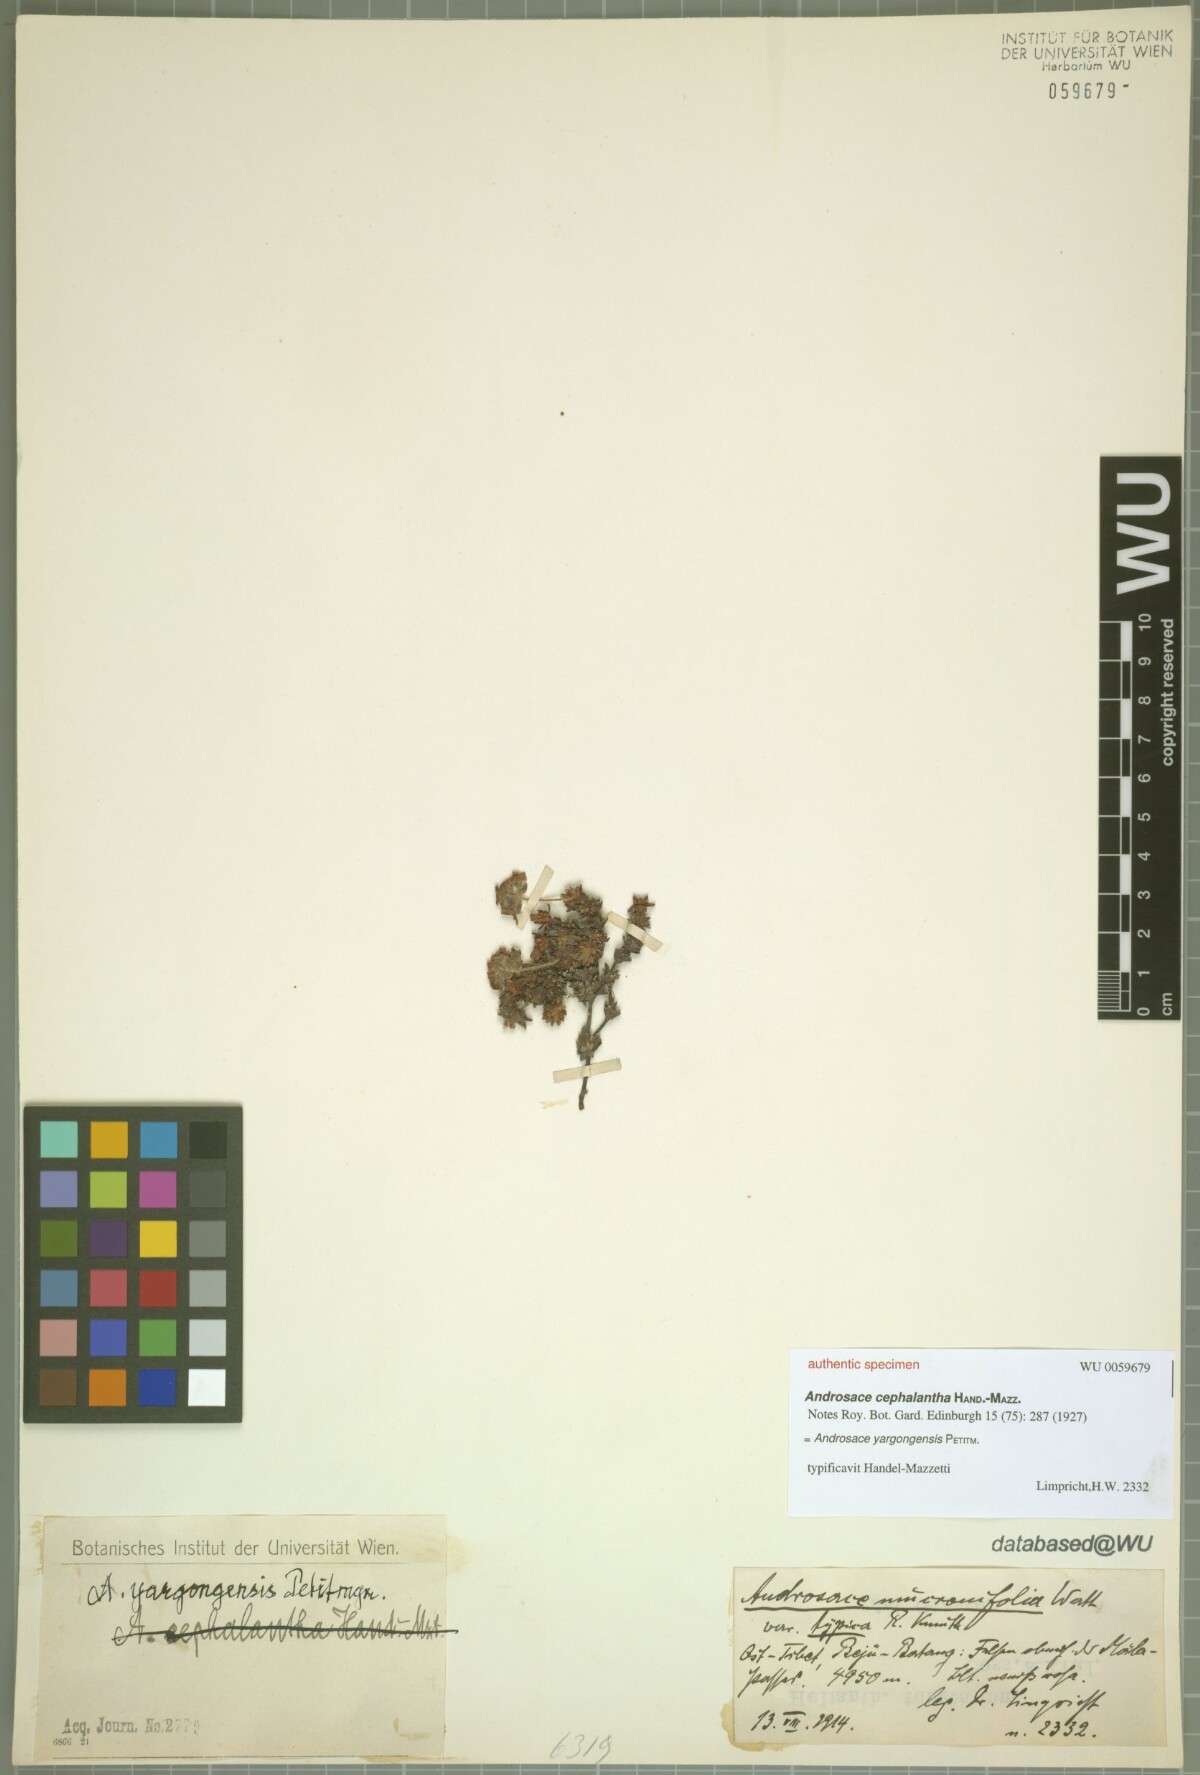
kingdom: Plantae
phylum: Tracheophyta
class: Magnoliopsida
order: Ericales
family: Primulaceae
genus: Androsace
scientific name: Androsace yargongensis
